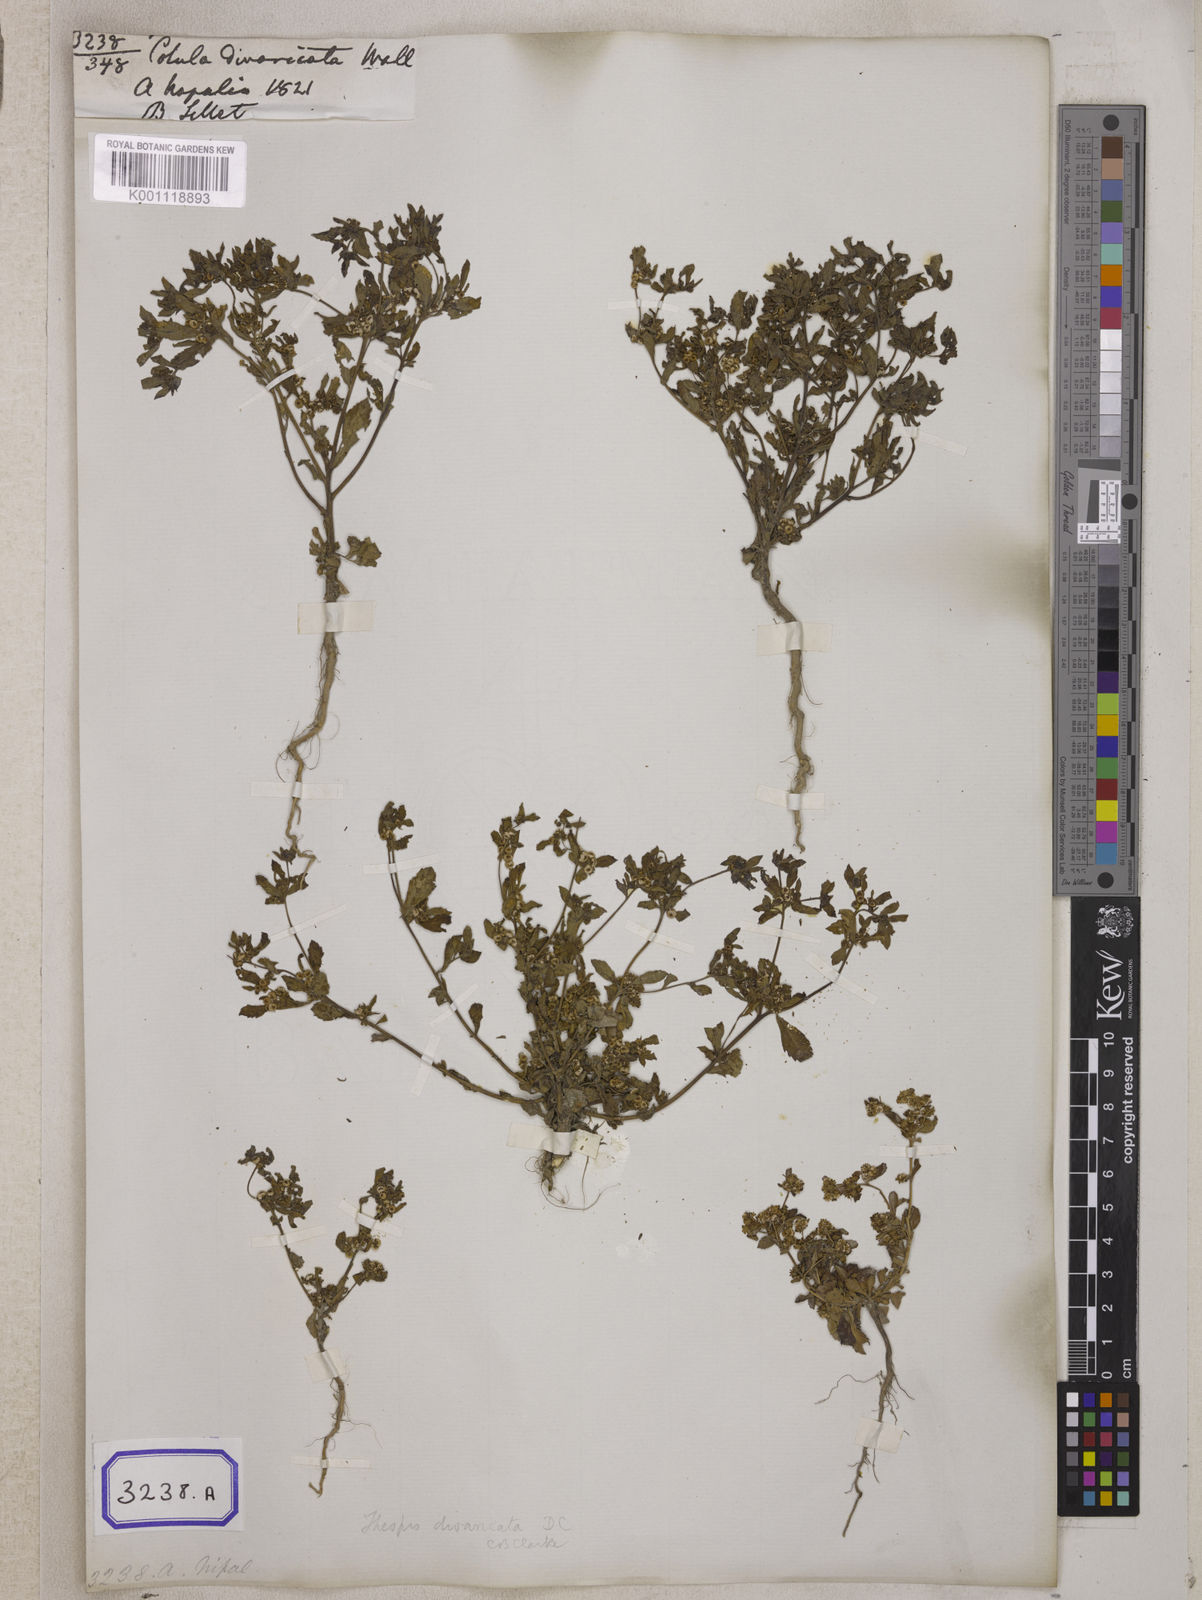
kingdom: Plantae
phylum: Tracheophyta
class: Magnoliopsida
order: Asterales
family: Asteraceae
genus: Thespis
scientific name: Thespis divaricata
